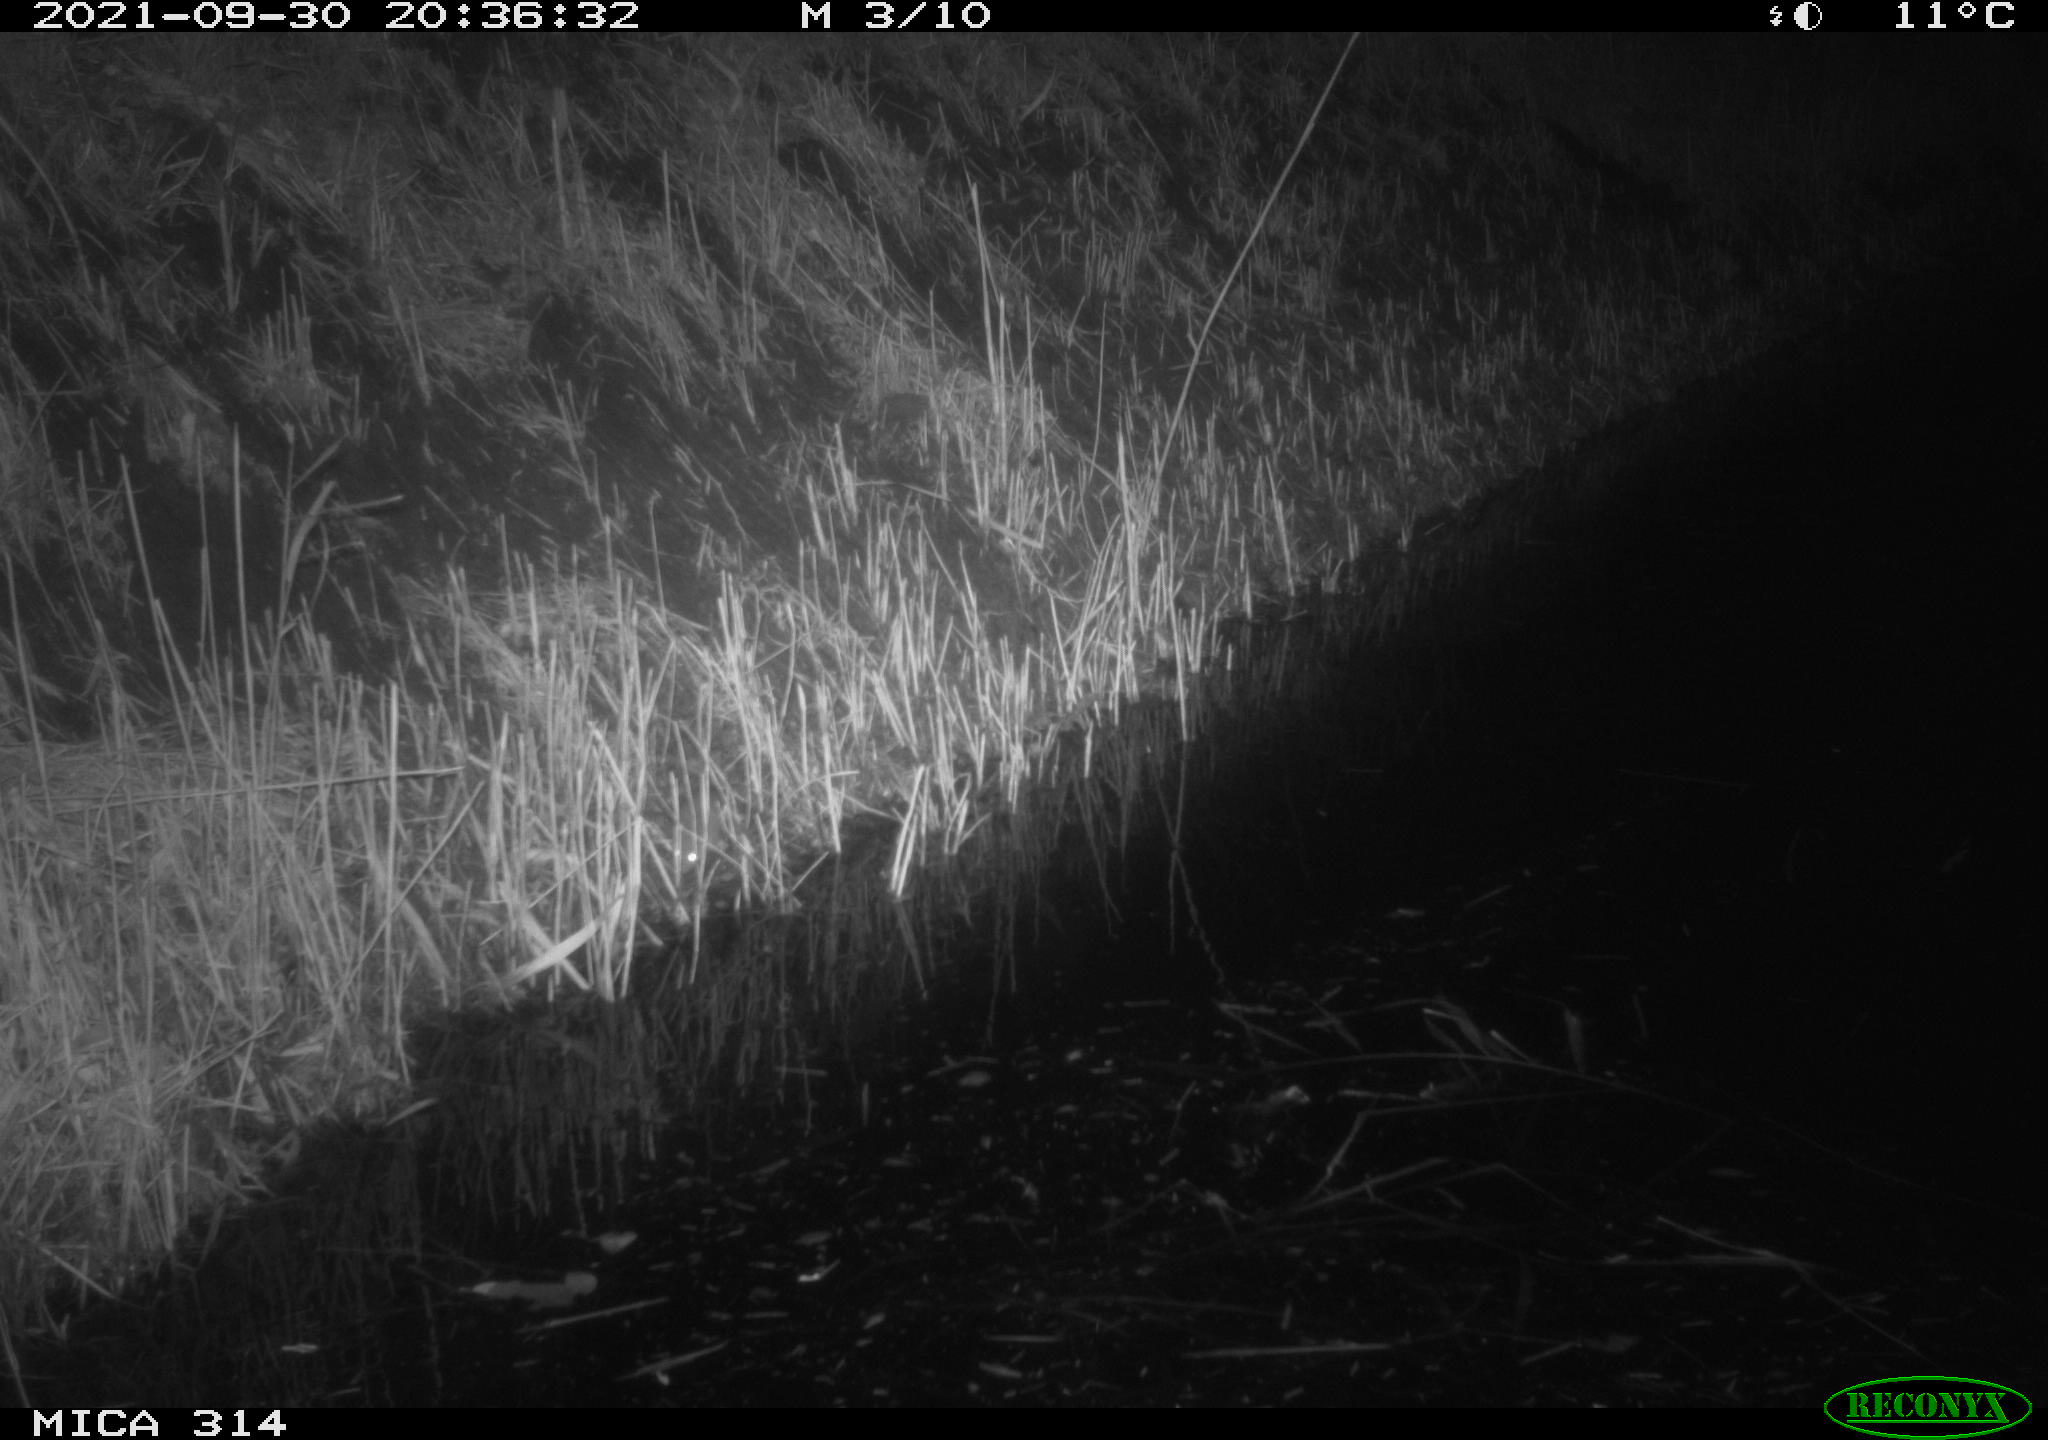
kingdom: Animalia
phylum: Chordata
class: Mammalia
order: Rodentia
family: Muridae
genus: Rattus
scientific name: Rattus norvegicus
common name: Brown rat
